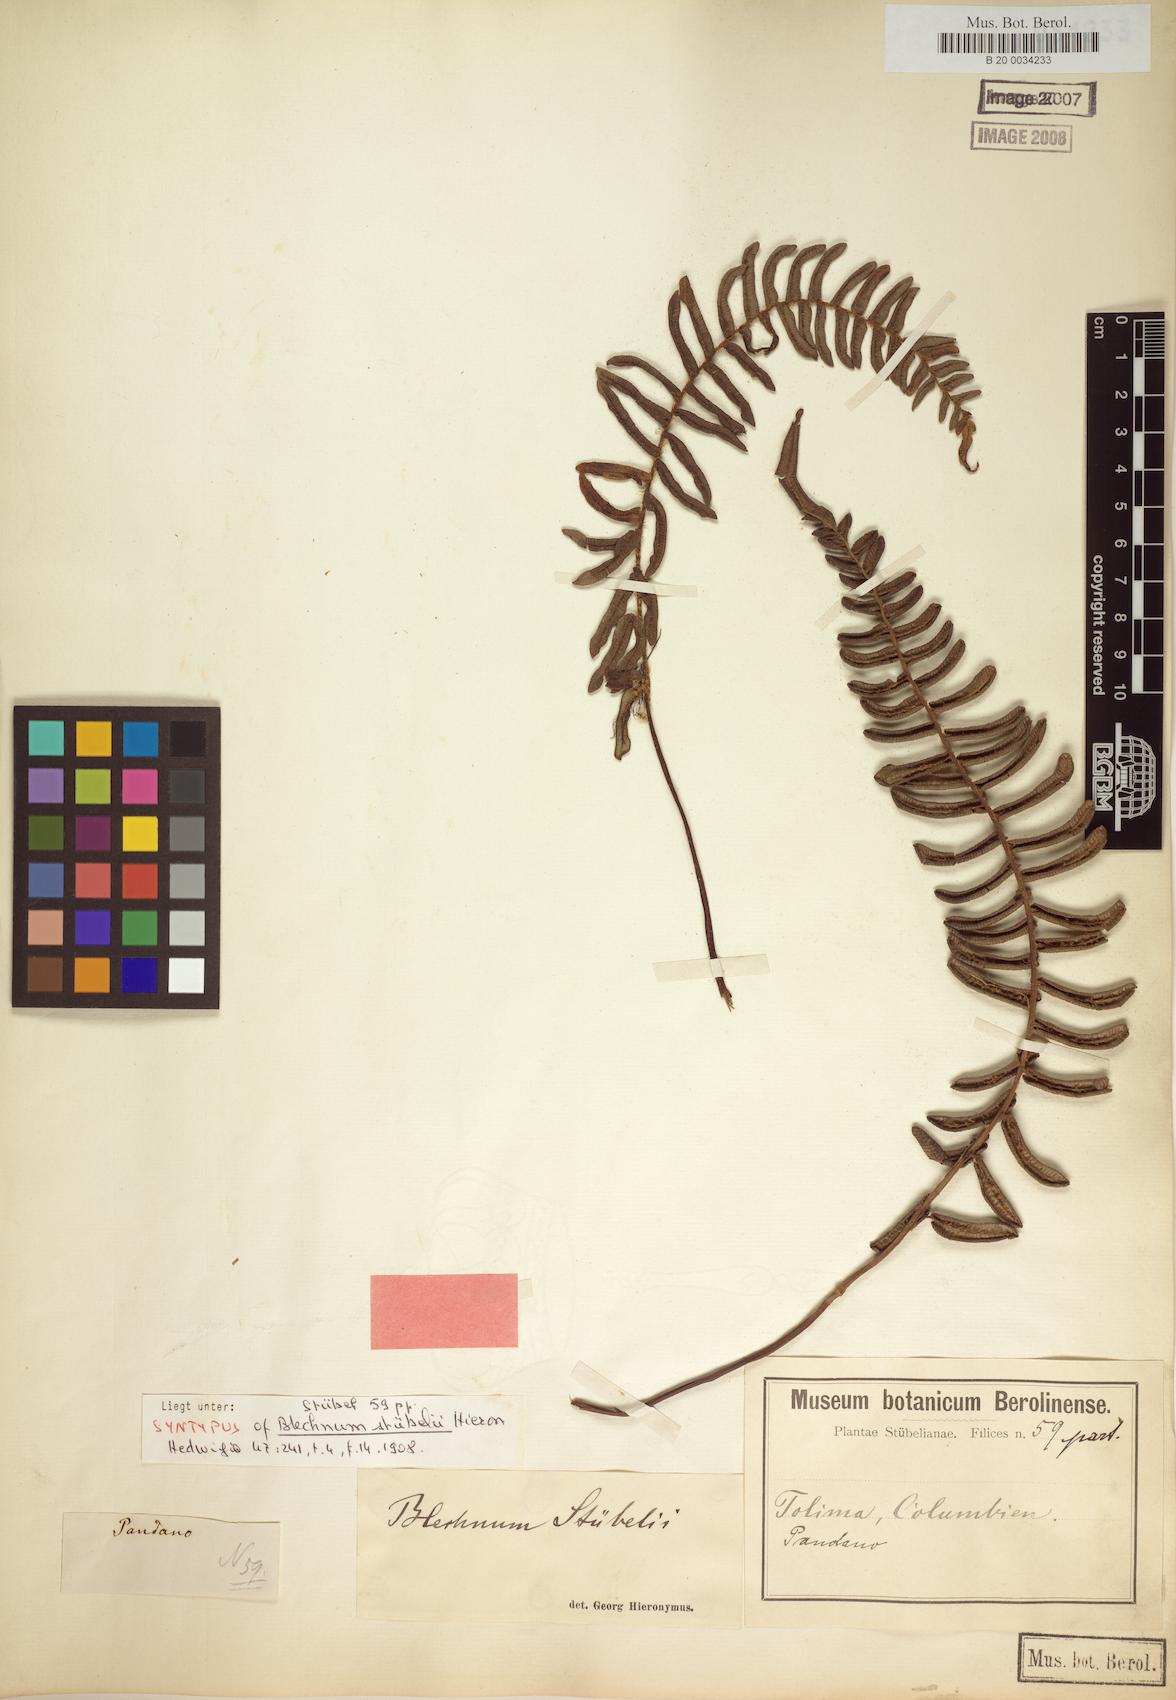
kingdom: Plantae
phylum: Tracheophyta
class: Polypodiopsida
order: Polypodiales
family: Blechnaceae
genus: Parablechnum
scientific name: Parablechnum stuebelii
